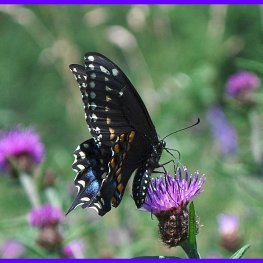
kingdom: Animalia
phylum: Arthropoda
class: Insecta
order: Lepidoptera
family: Papilionidae
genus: Papilio
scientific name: Papilio polyxenes
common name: Black Swallowtail
